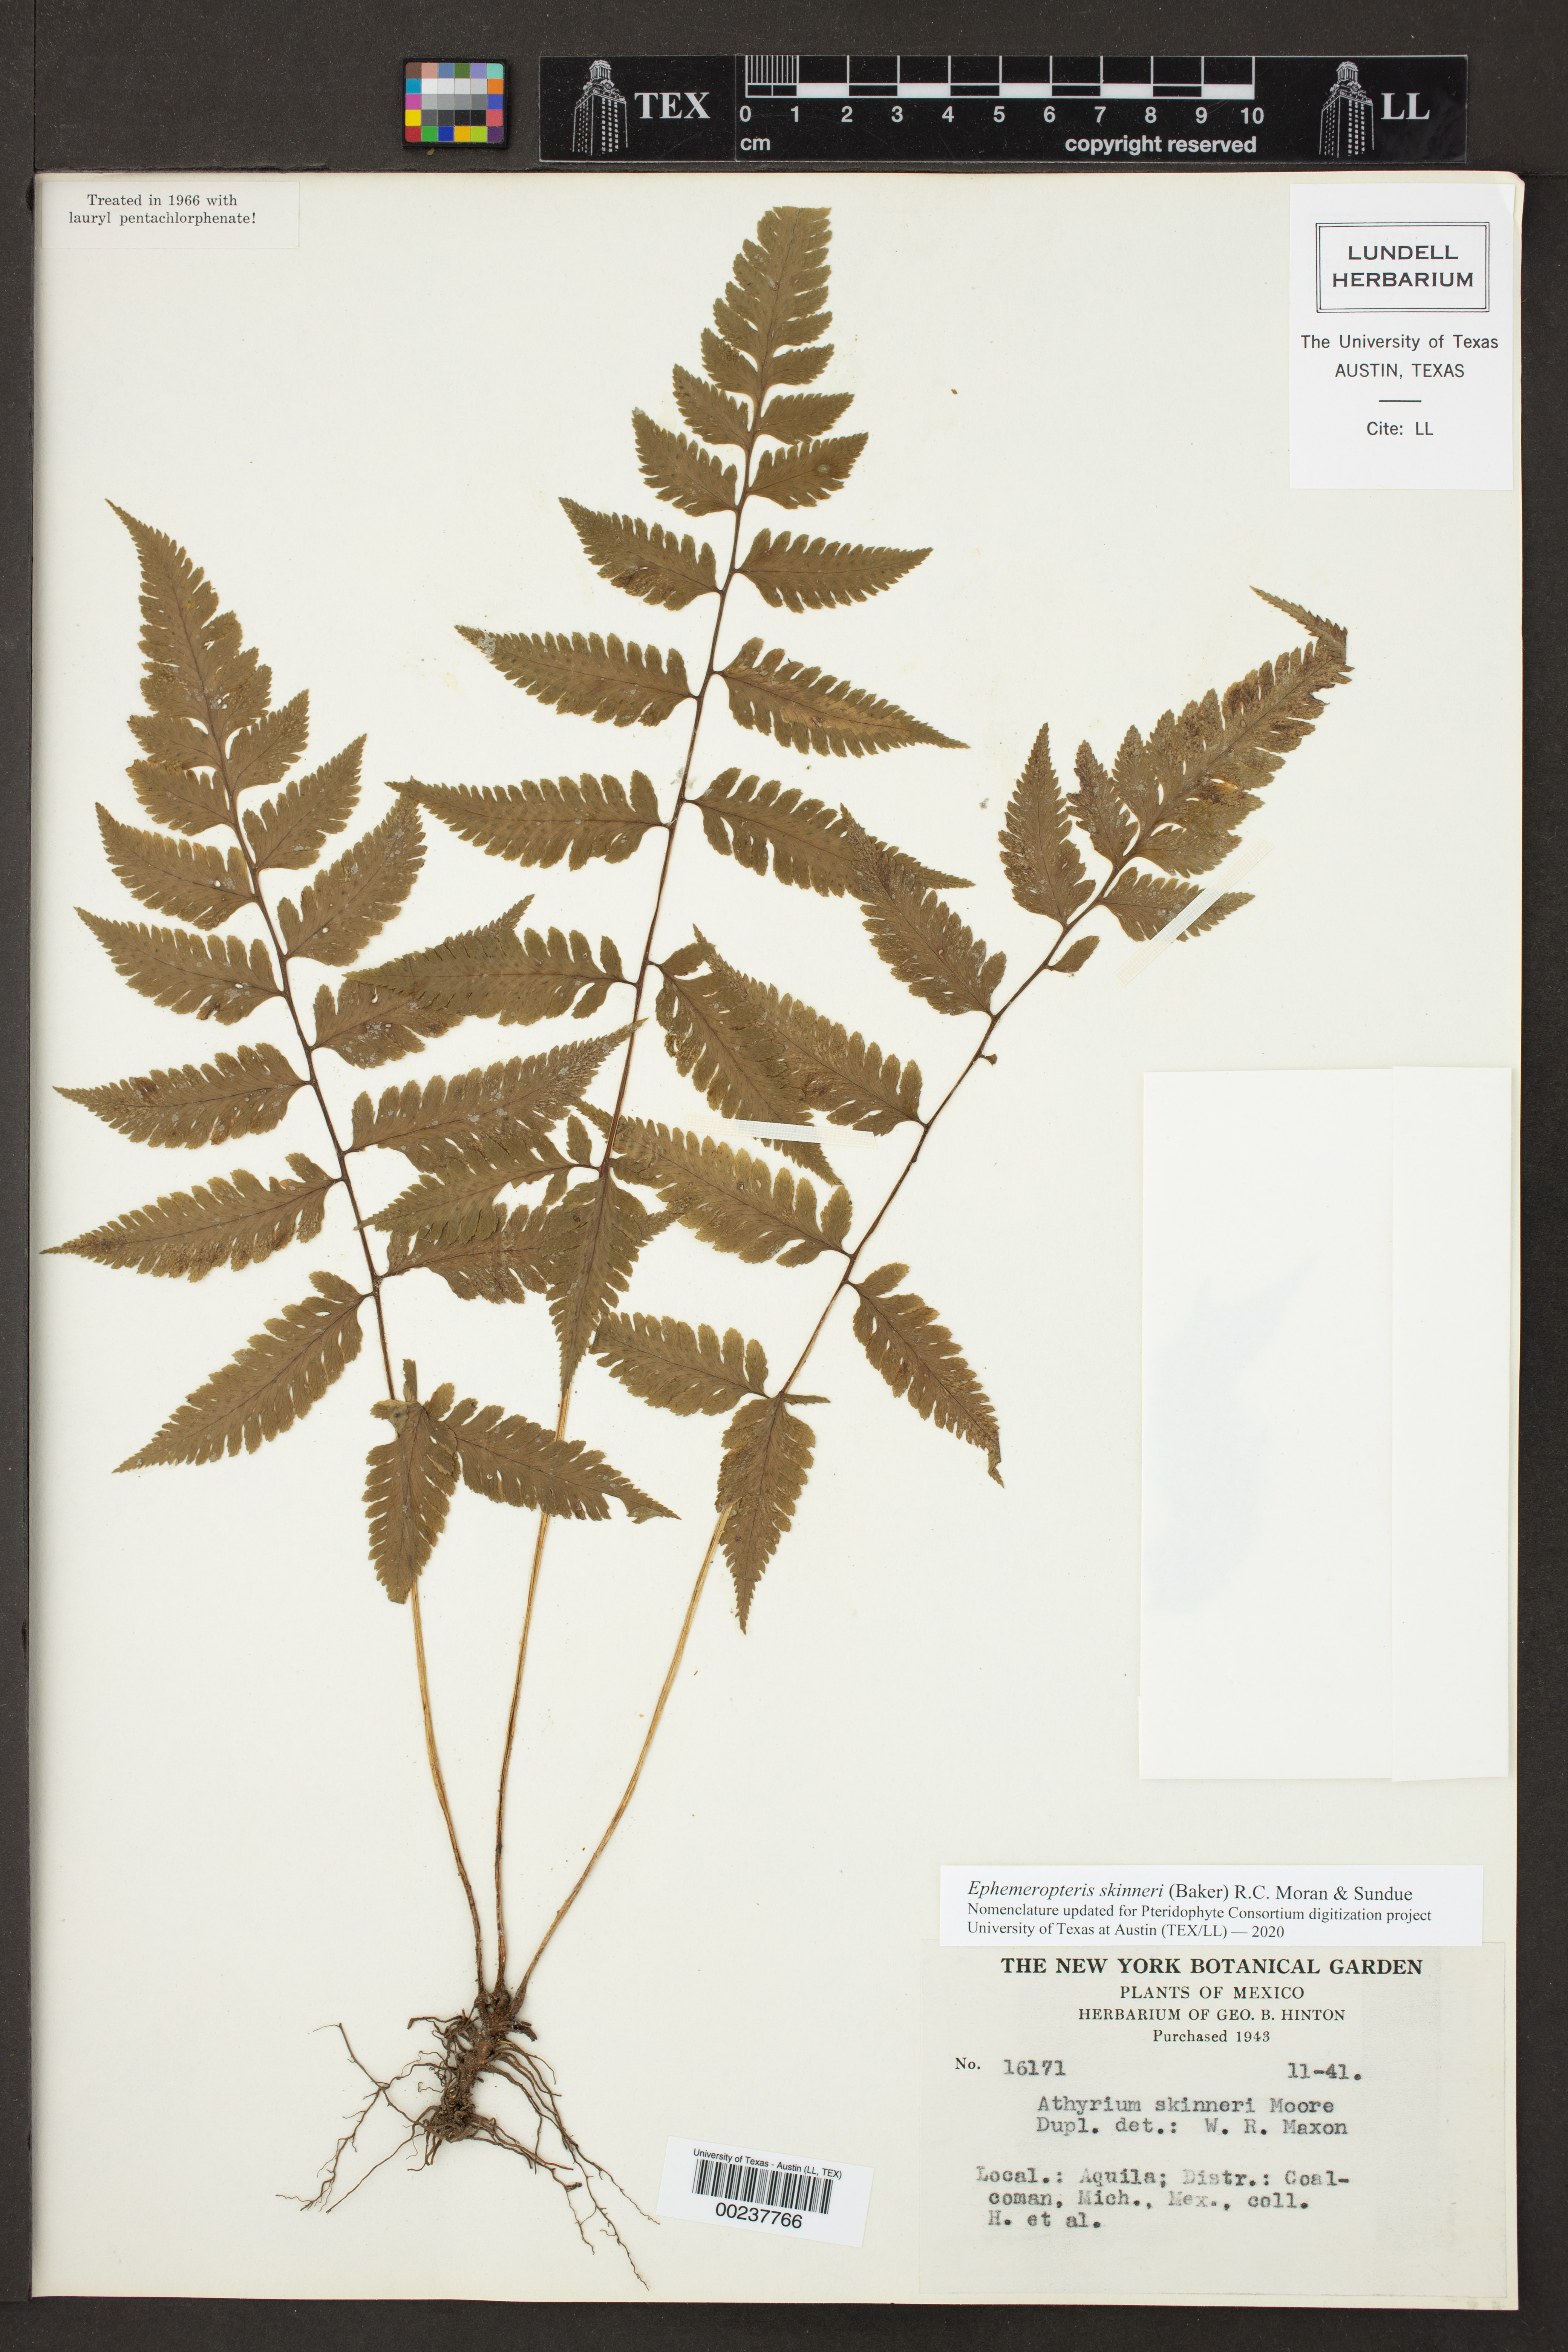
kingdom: Plantae
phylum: Tracheophyta
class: Polypodiopsida
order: Polypodiales
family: Athyriaceae
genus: Ephemeropteris
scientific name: Ephemeropteris skinneri
